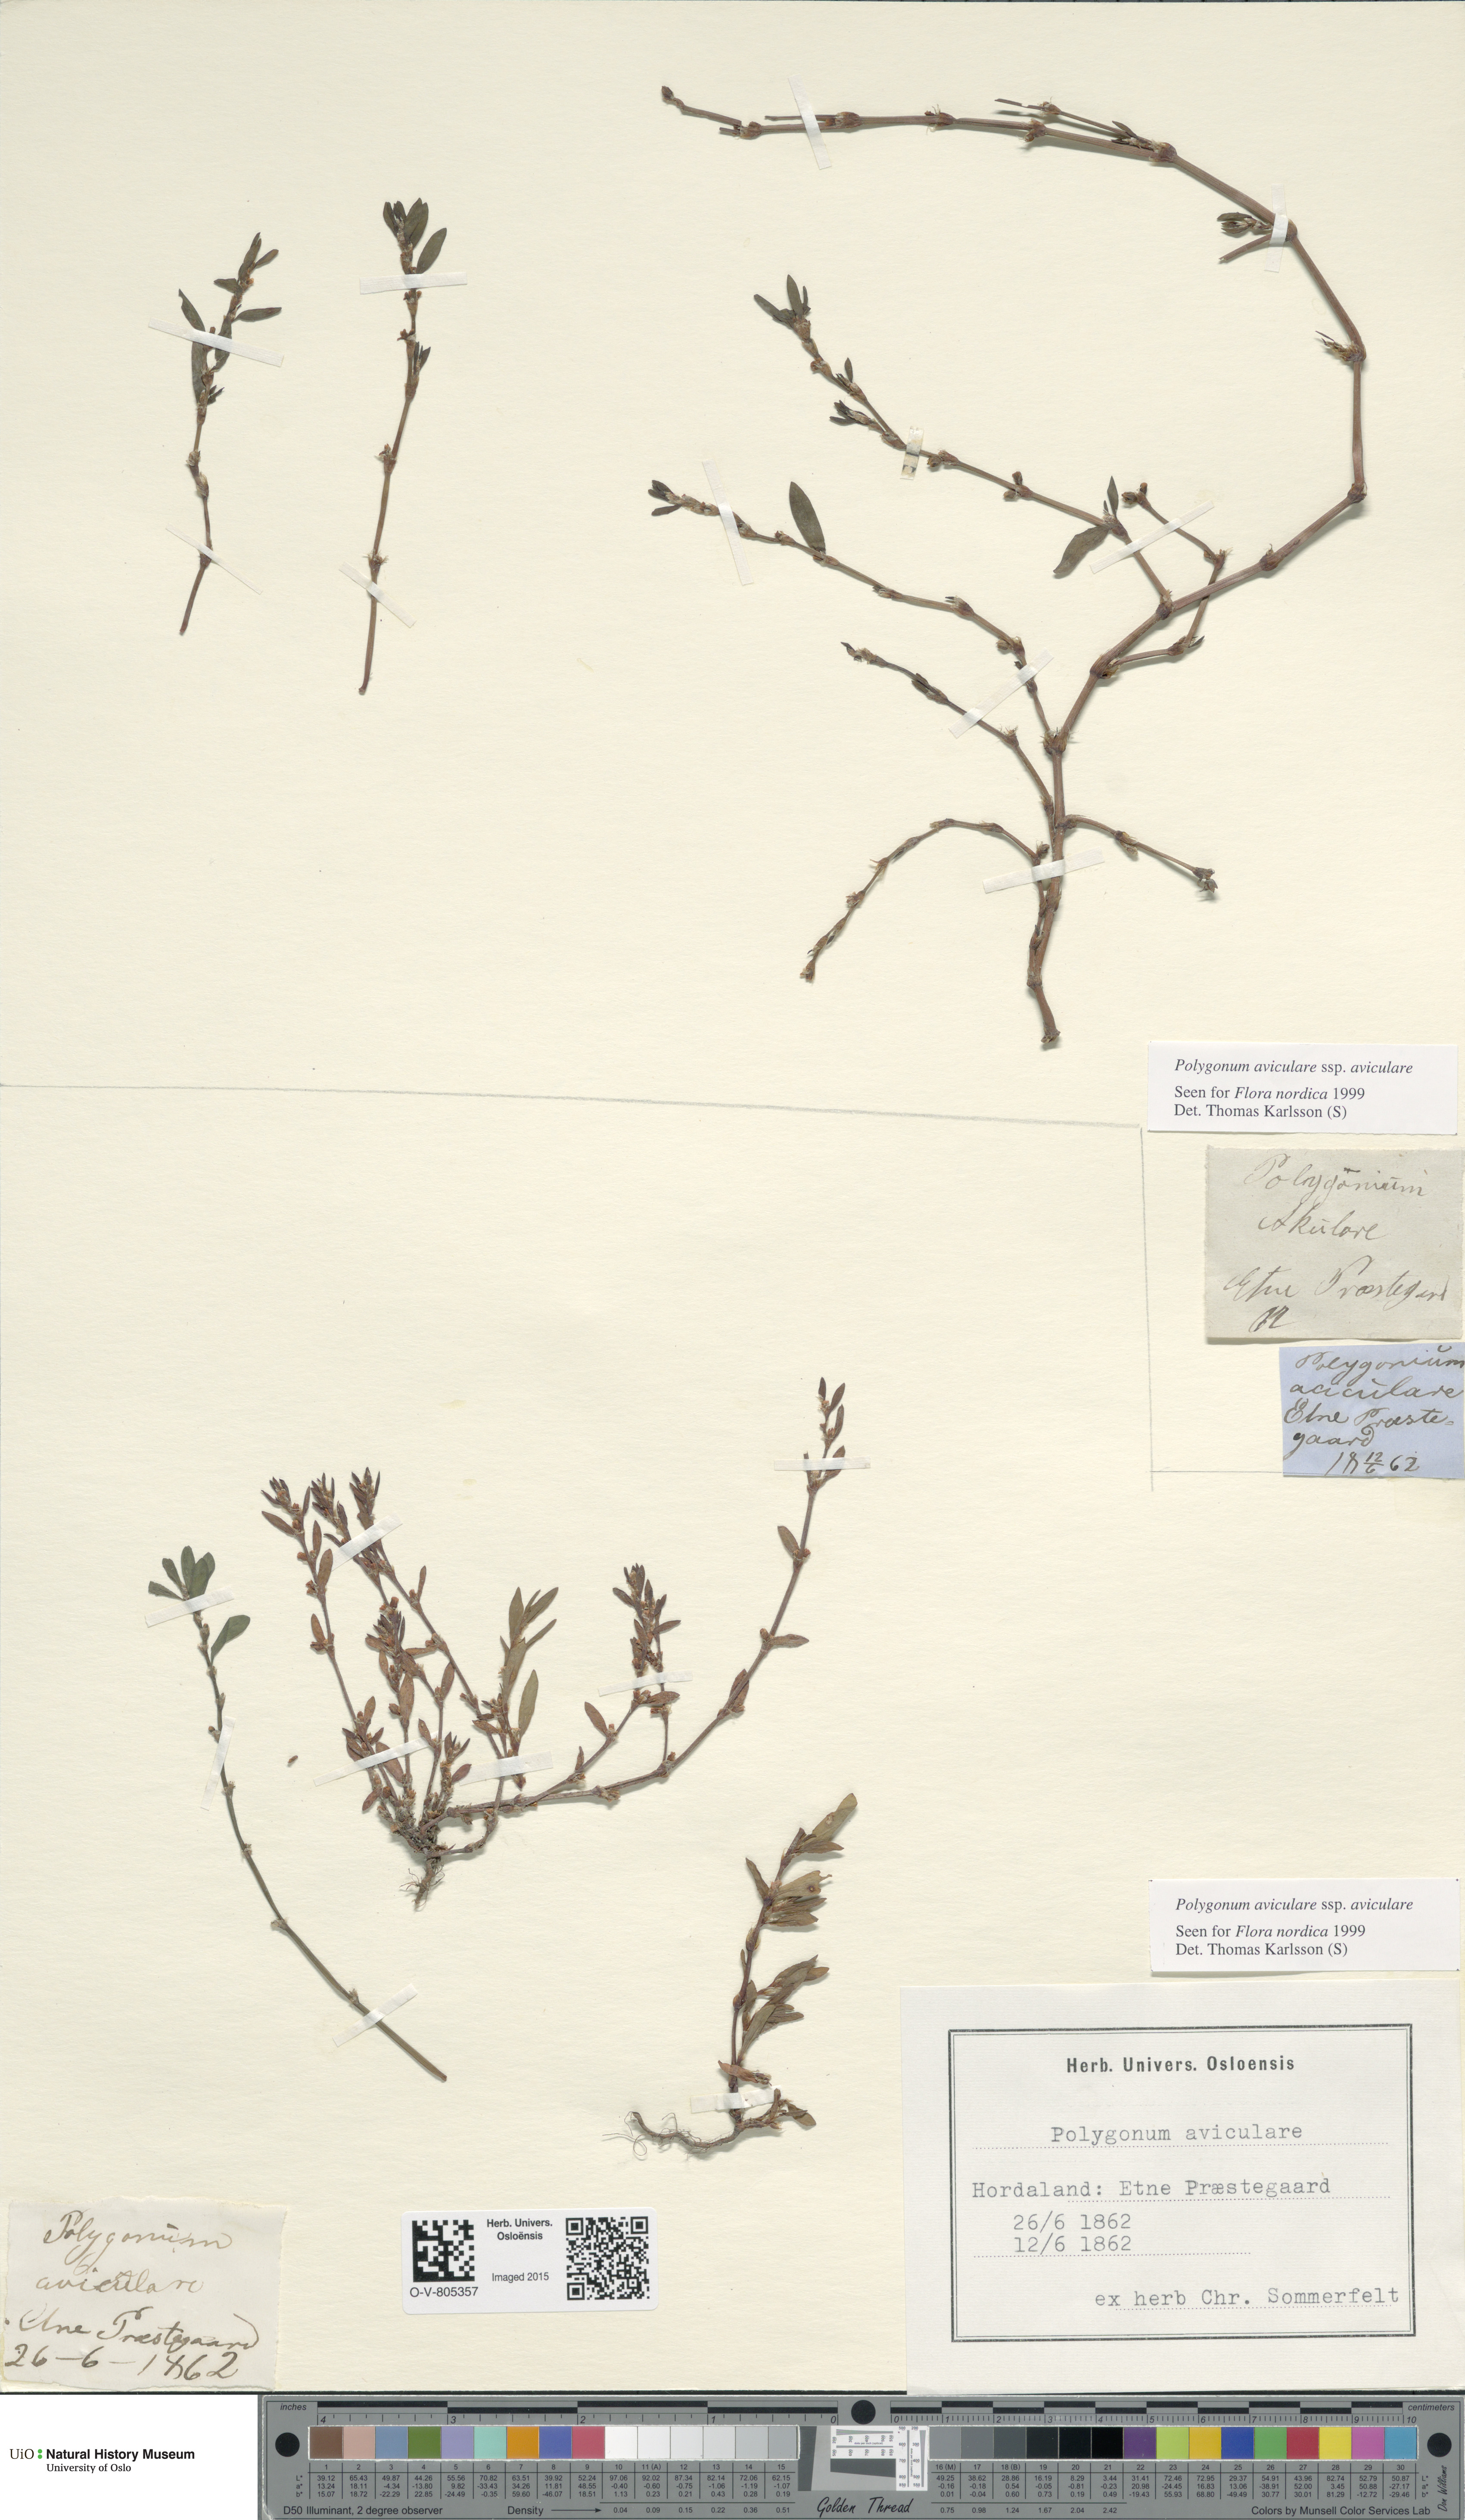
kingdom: Plantae
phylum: Tracheophyta
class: Magnoliopsida
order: Caryophyllales
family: Polygonaceae
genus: Polygonum
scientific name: Polygonum aviculare
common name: Prostrate knotweed
